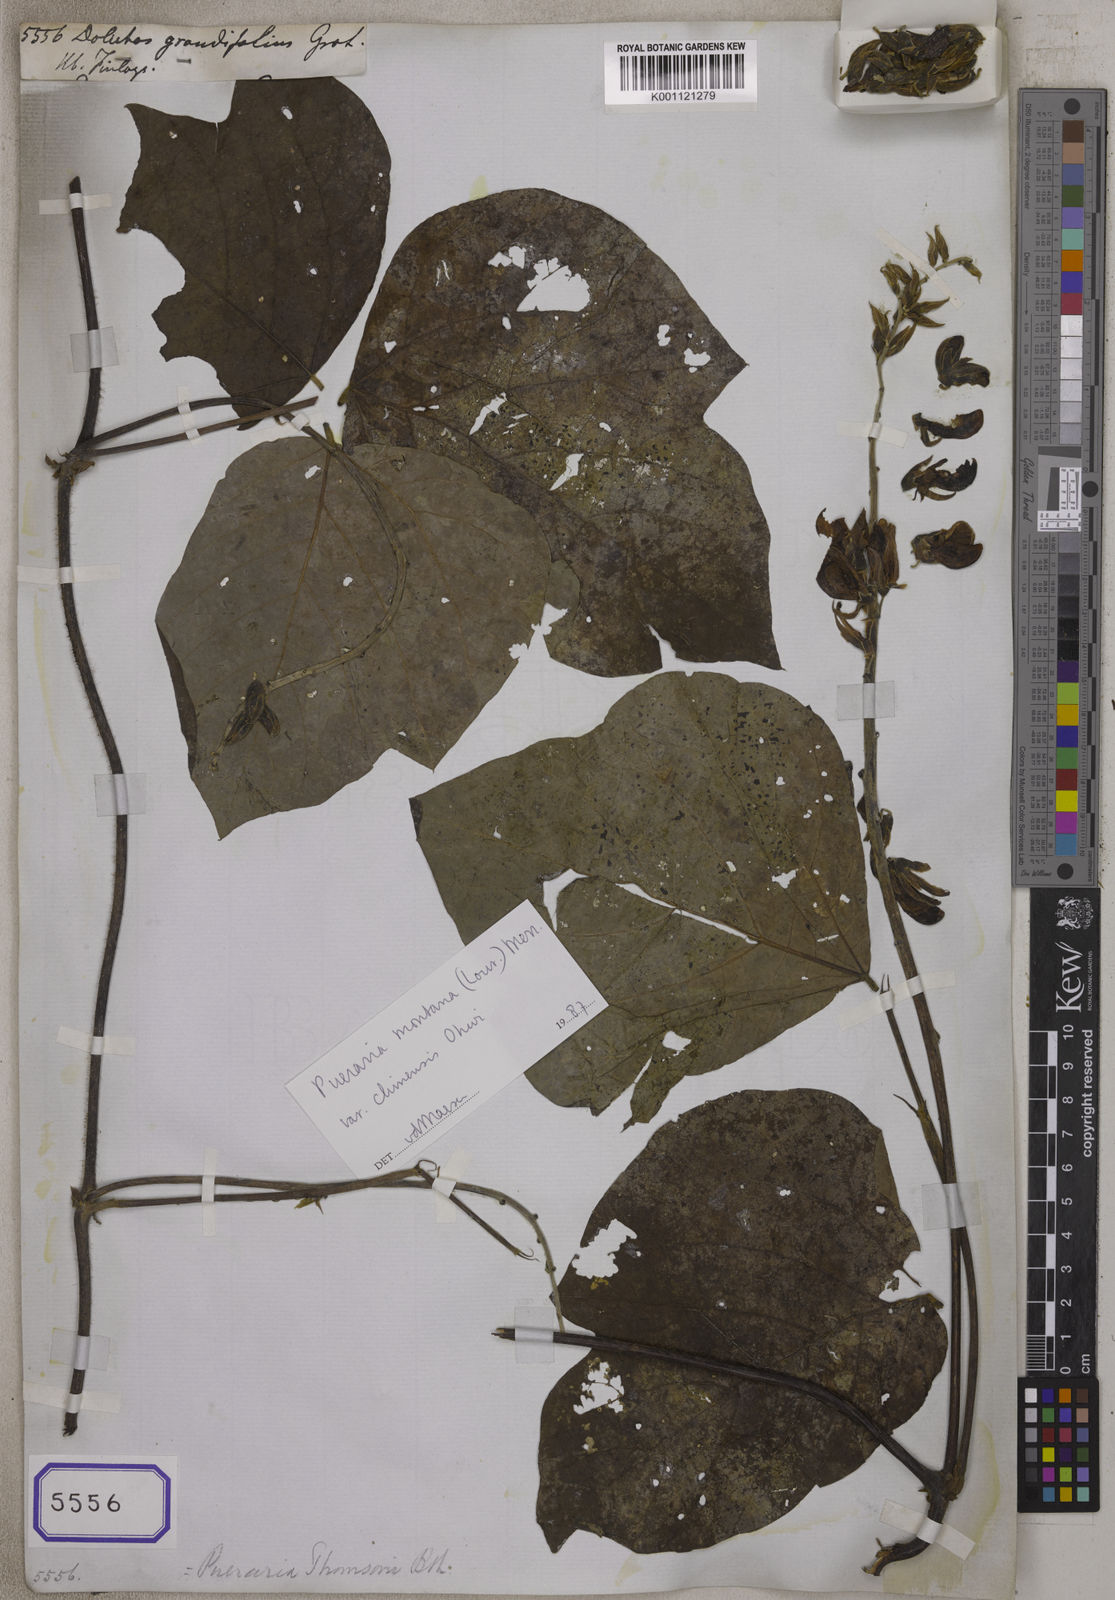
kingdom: Plantae
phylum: Tracheophyta
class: Magnoliopsida
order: Fabales
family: Fabaceae
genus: Pueraria
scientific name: Pueraria montana
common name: Kudzu
